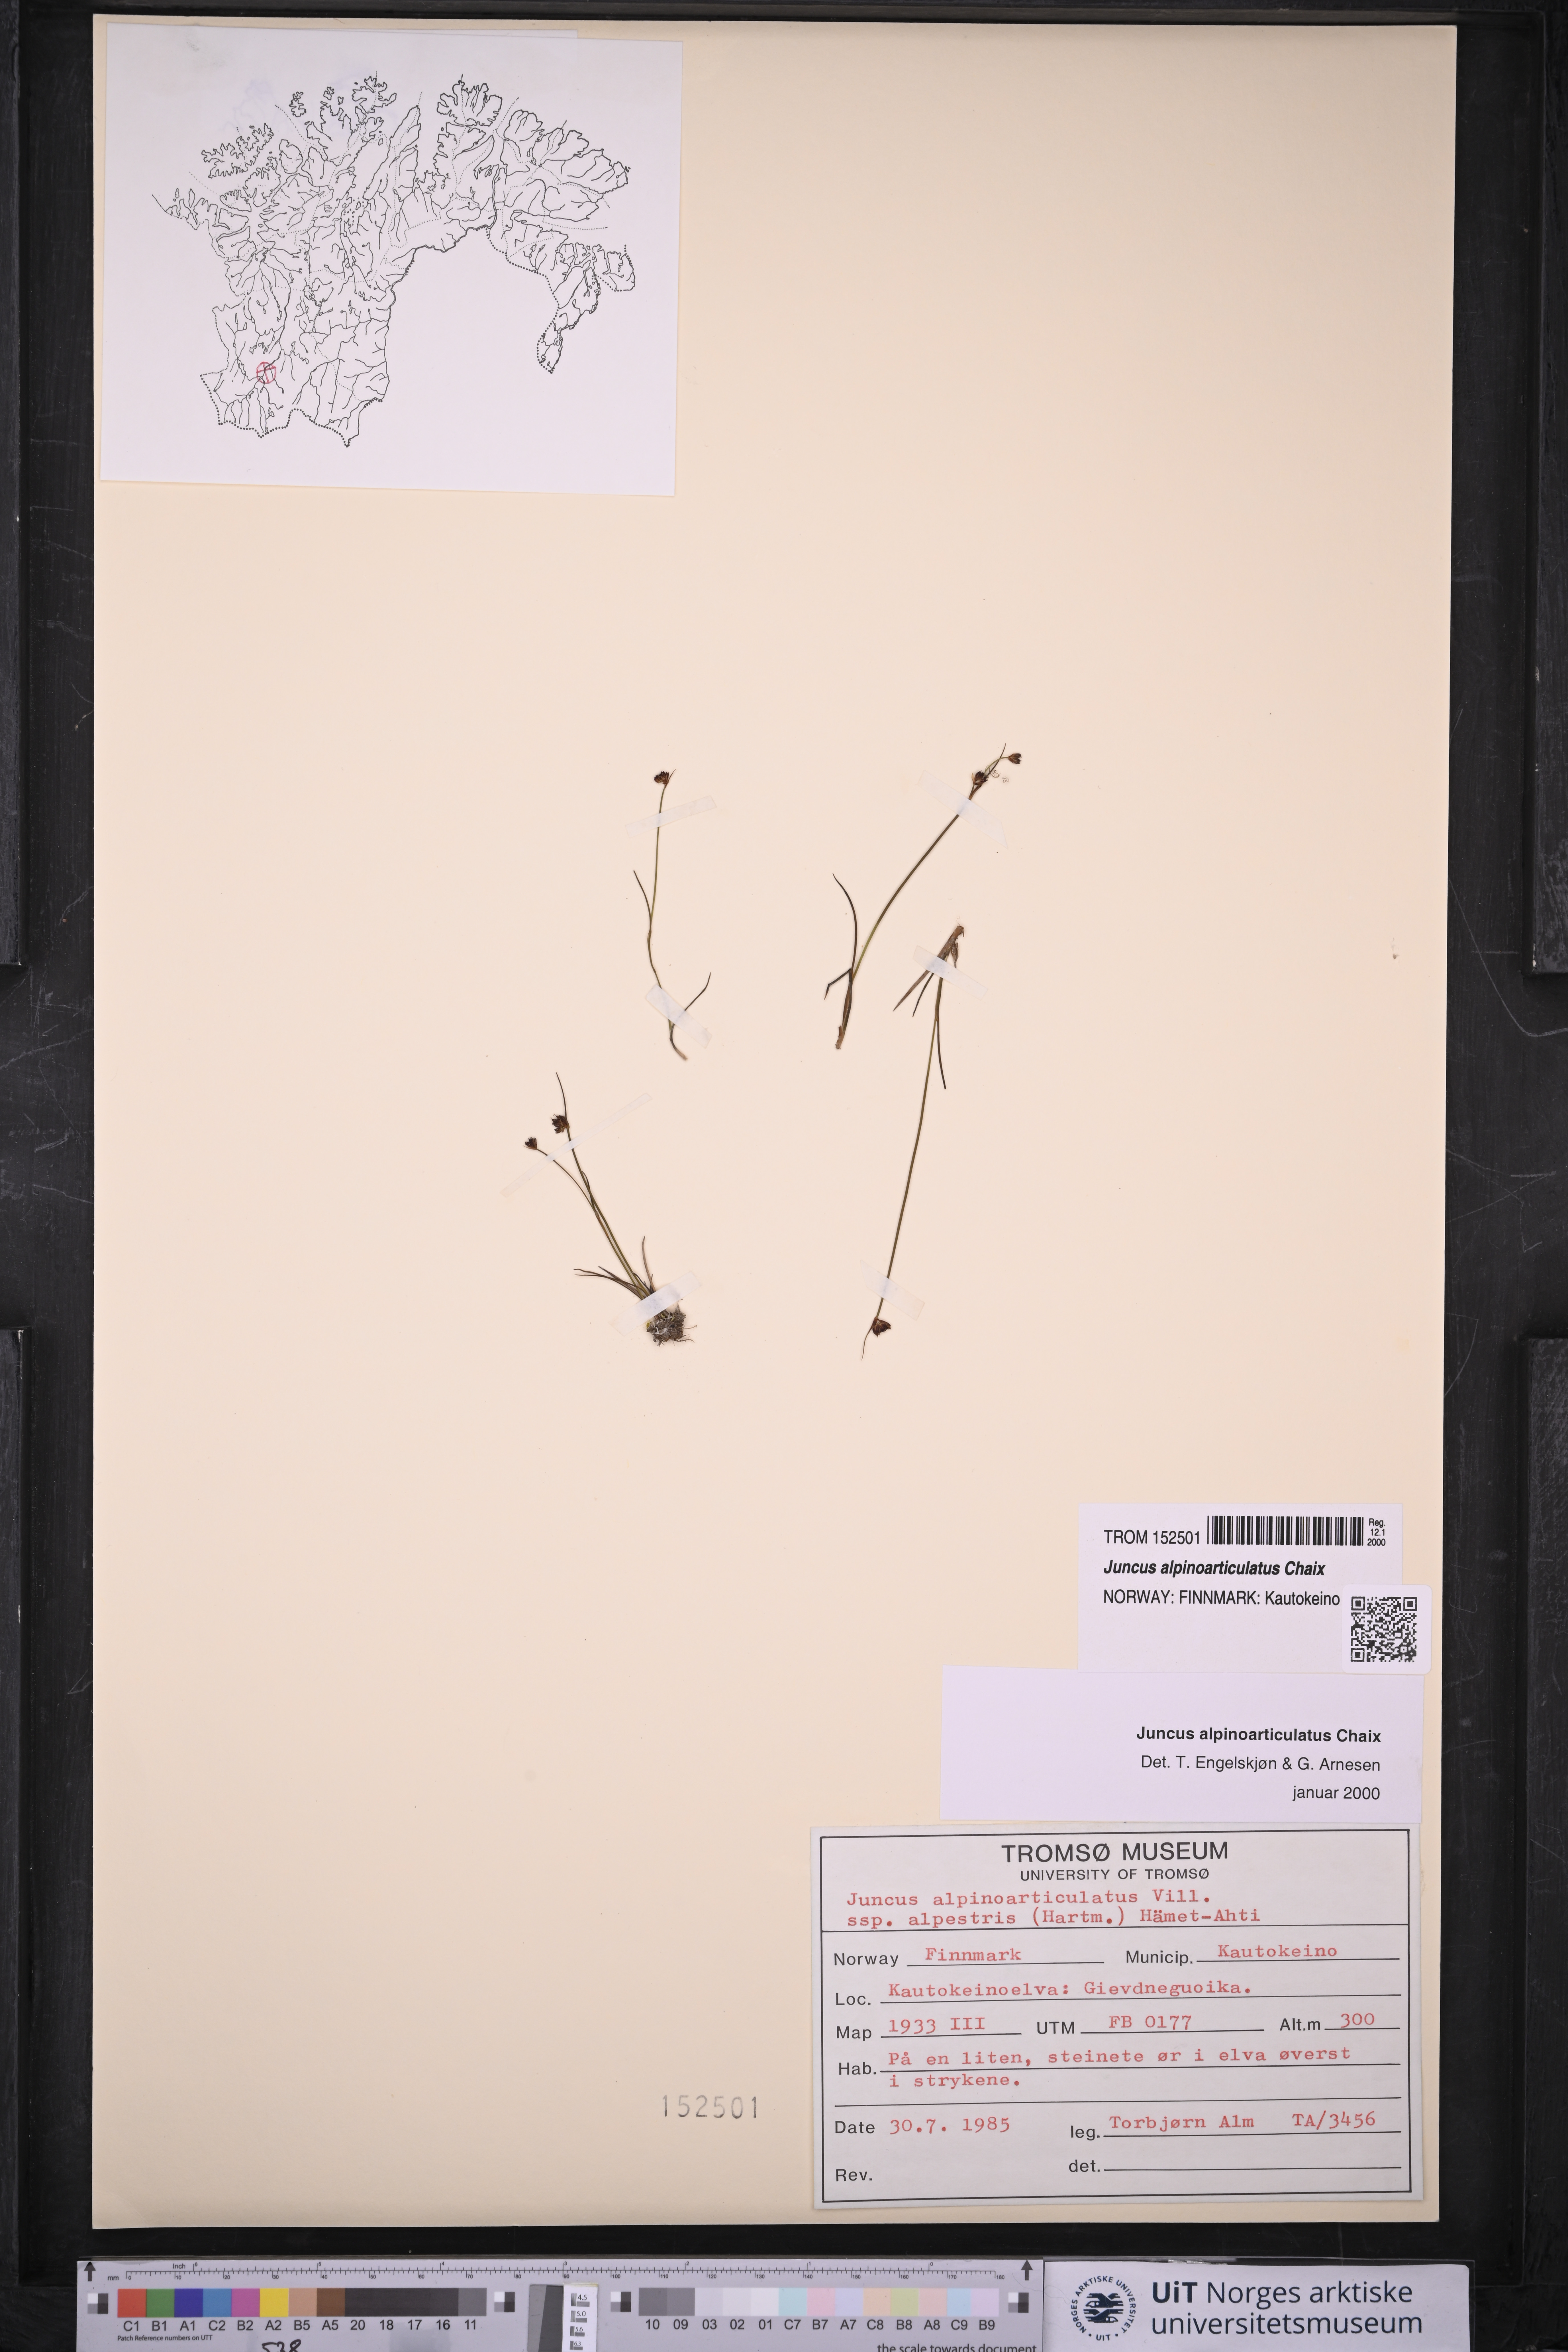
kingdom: Plantae
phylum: Tracheophyta
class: Liliopsida
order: Poales
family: Juncaceae
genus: Juncus
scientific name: Juncus alpinoarticulatus
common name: Alpine rush
